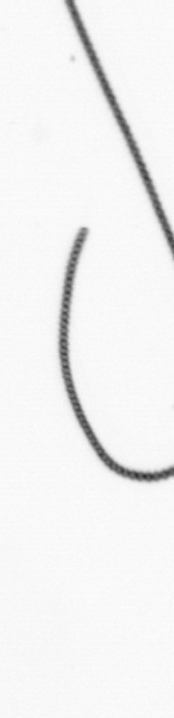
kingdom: Chromista
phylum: Ochrophyta
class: Bacillariophyceae
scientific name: Bacillariophyceae
